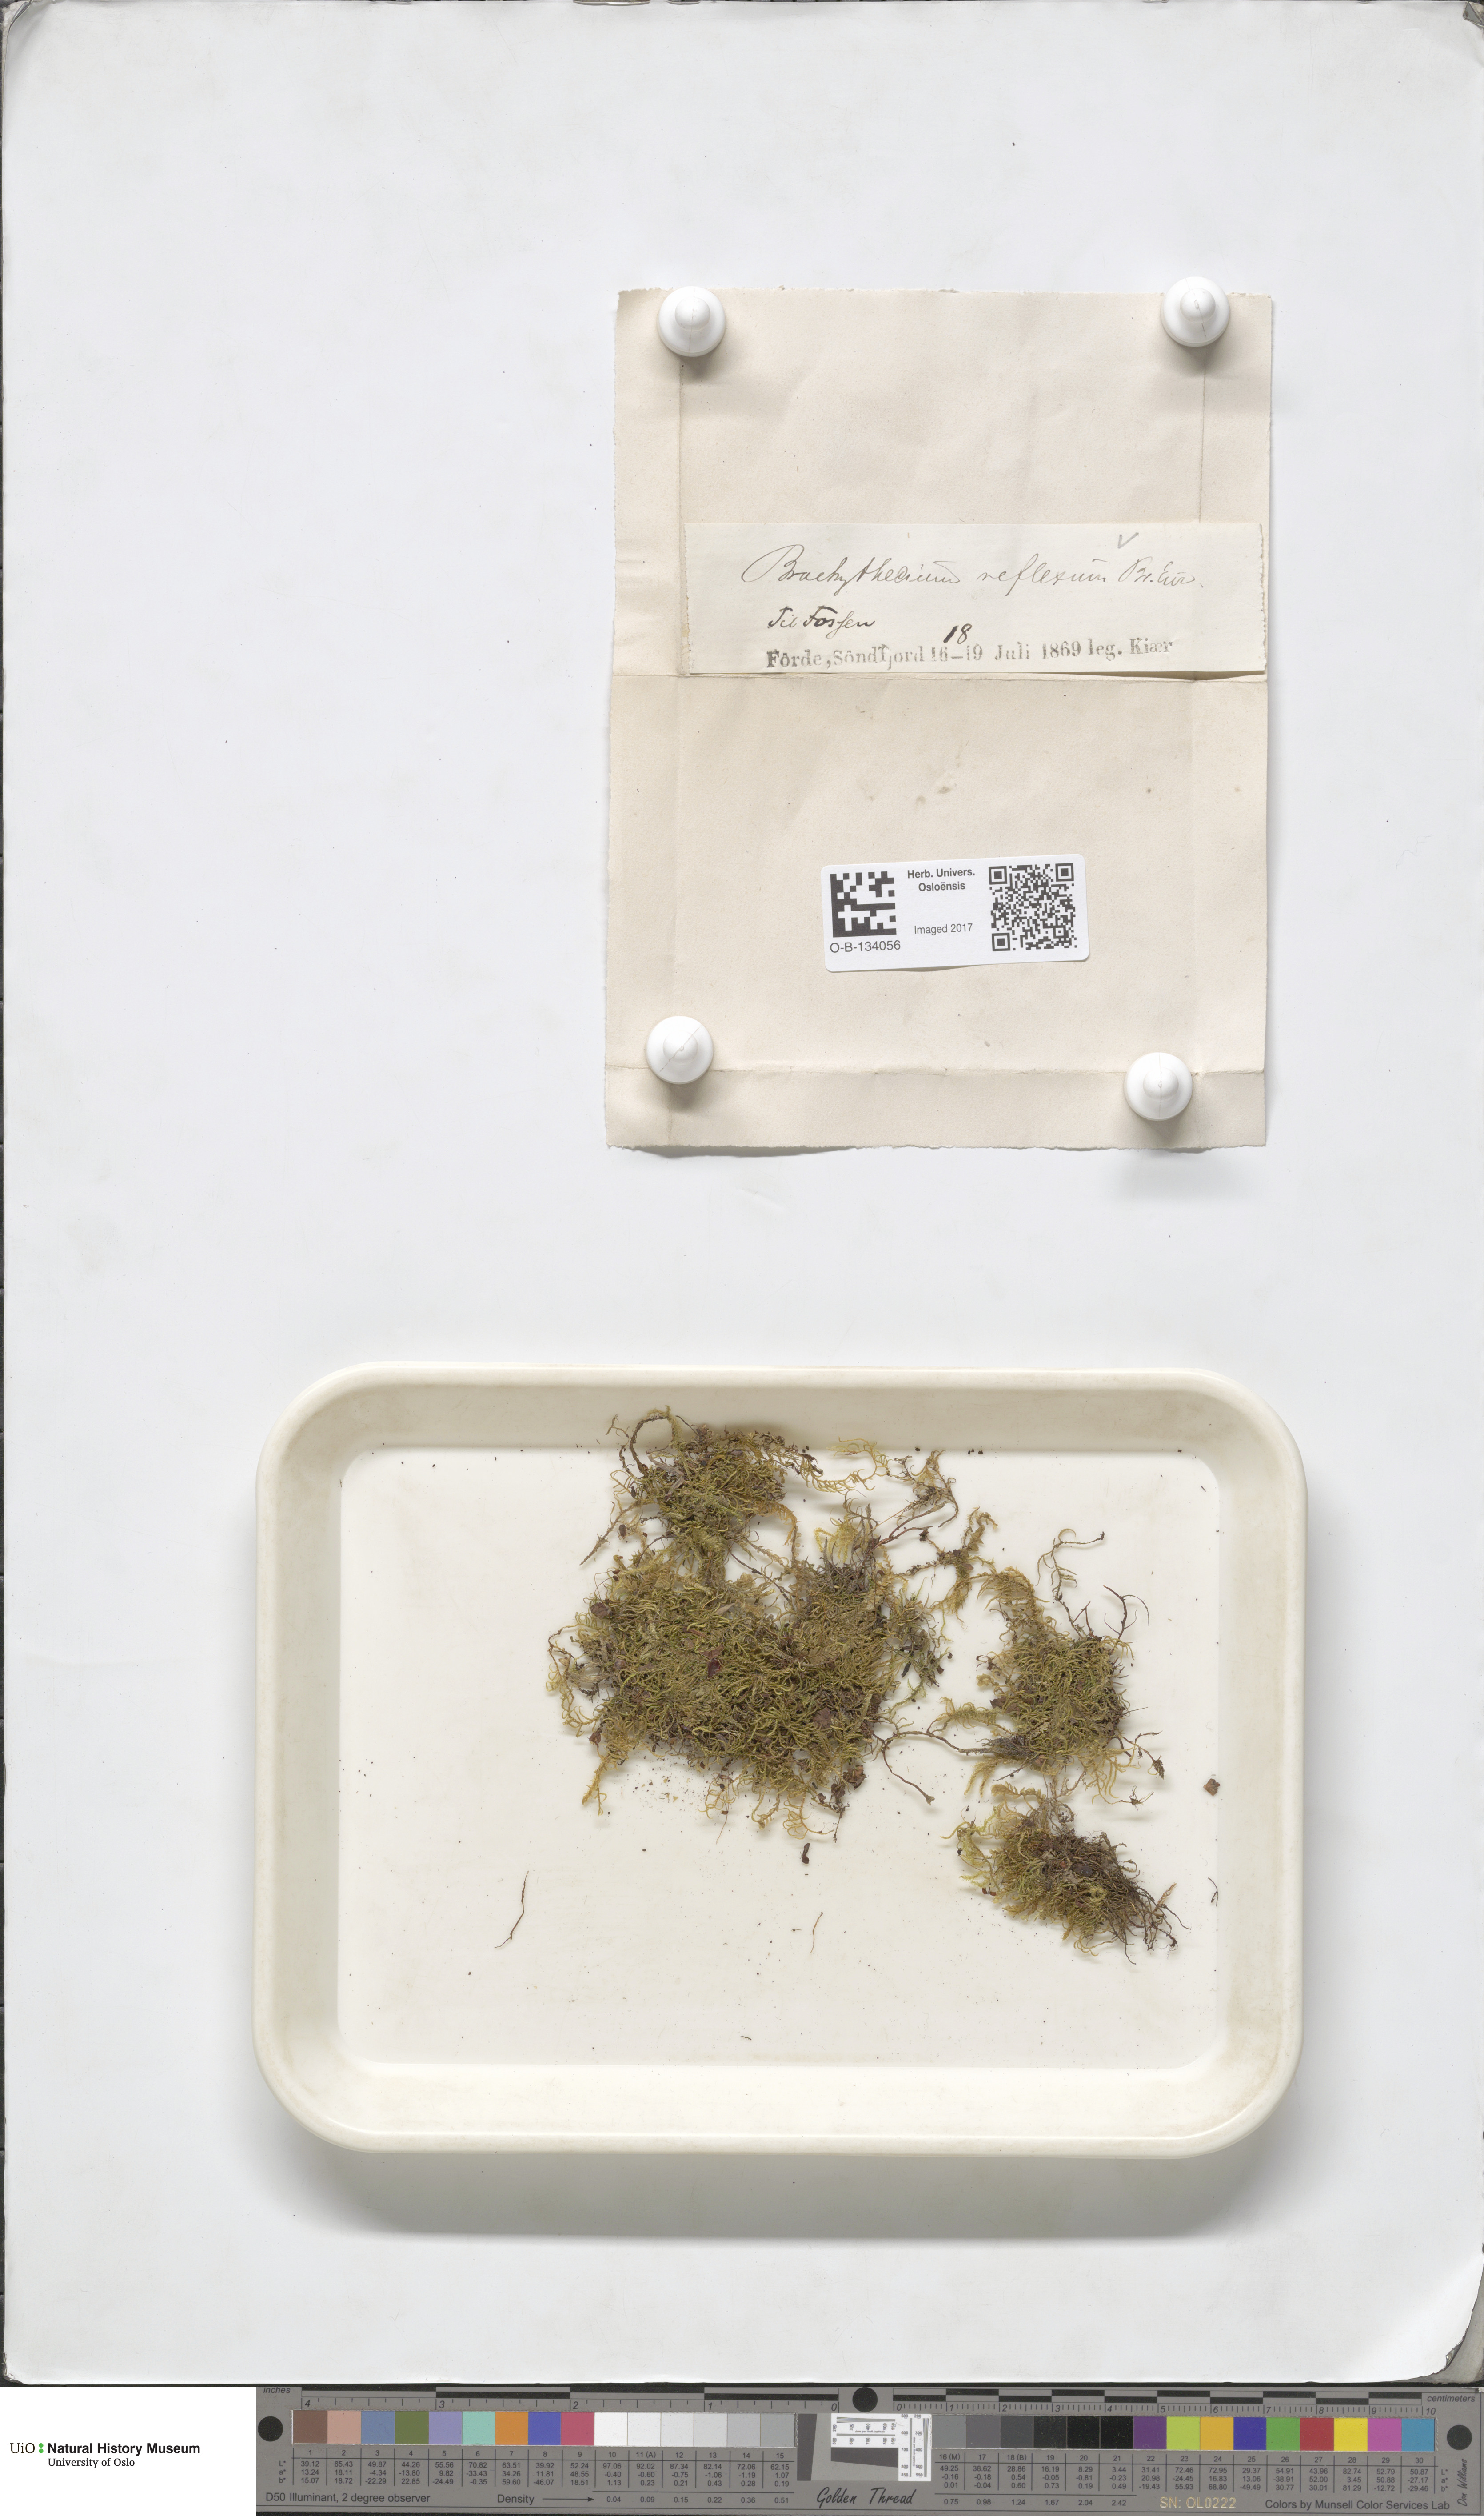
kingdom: Plantae
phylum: Bryophyta
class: Bryopsida
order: Hypnales
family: Brachytheciaceae
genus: Sciuro-hypnum
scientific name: Sciuro-hypnum reflexum
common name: Reflexed feather-moss
